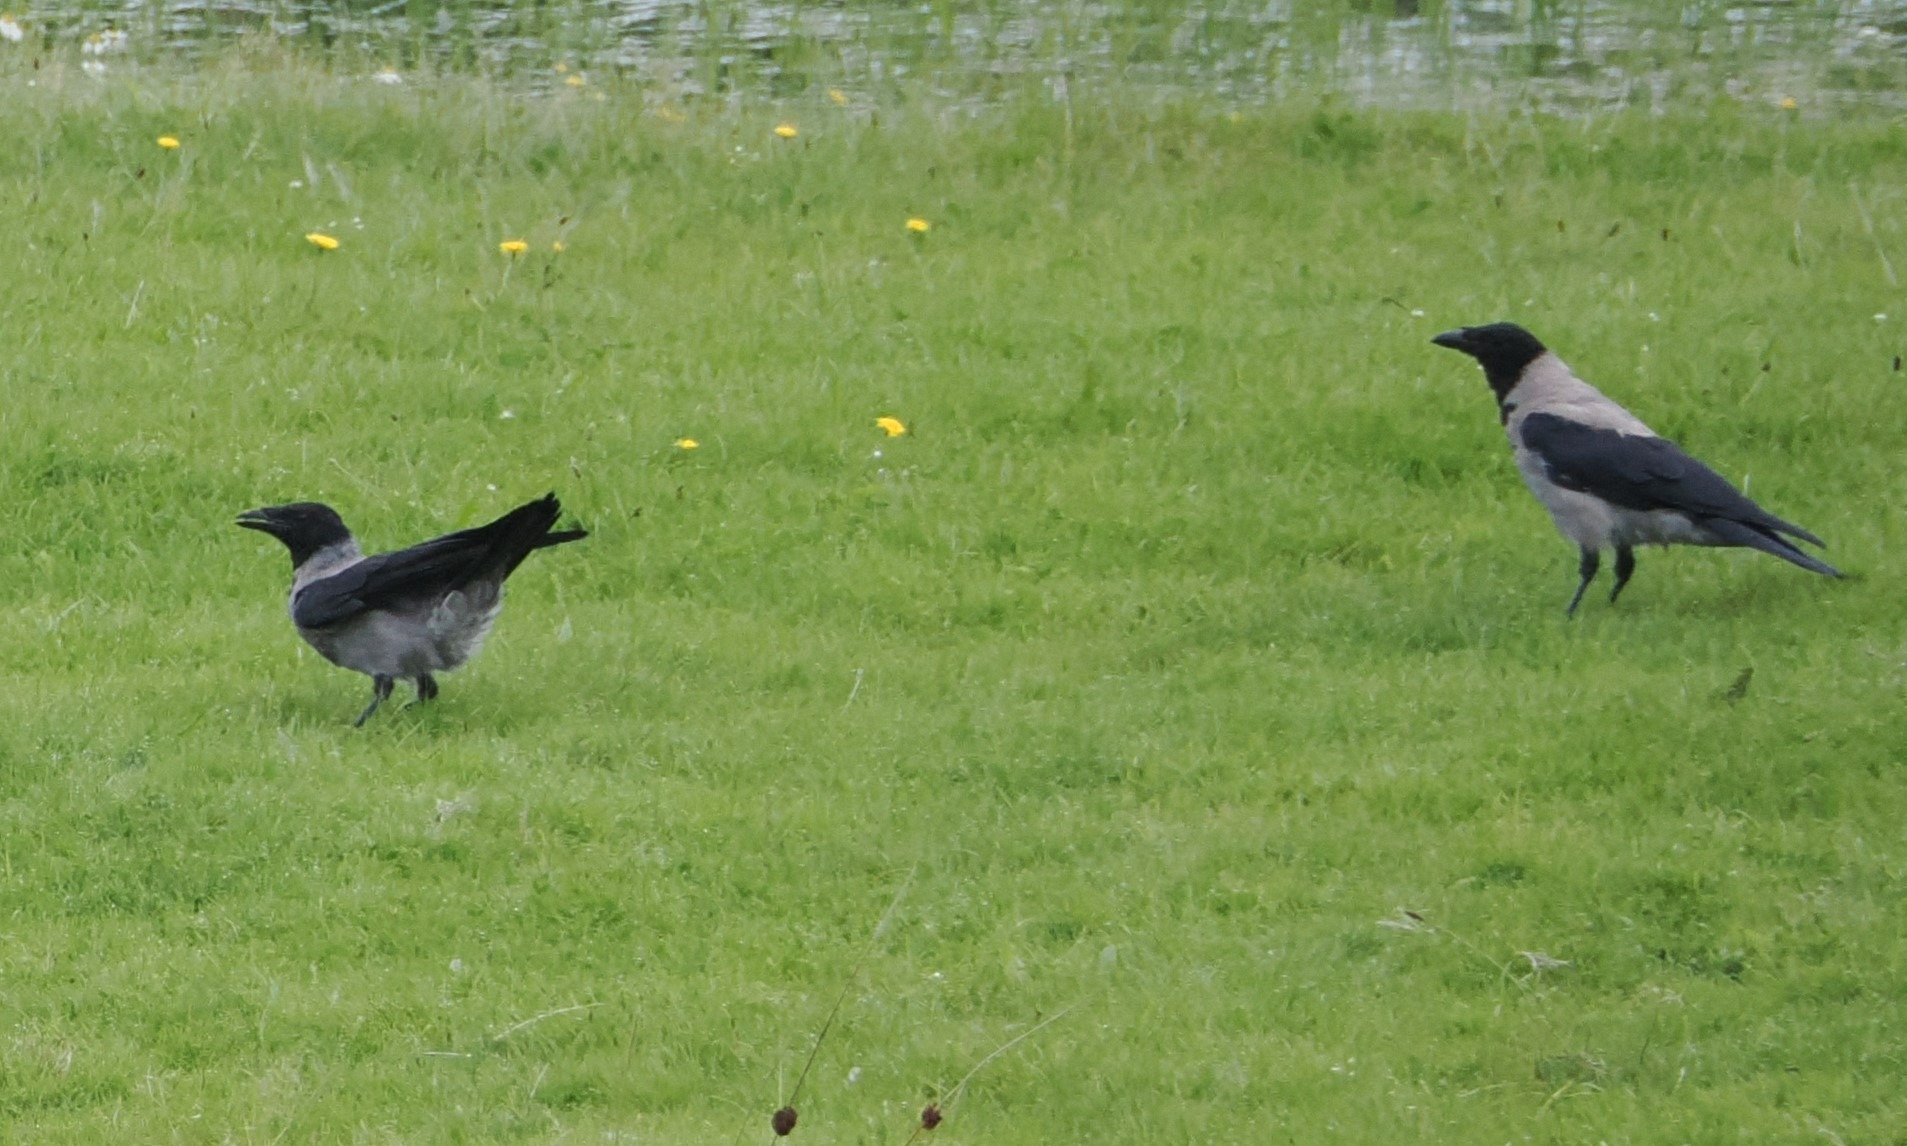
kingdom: Animalia
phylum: Chordata
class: Aves
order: Passeriformes
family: Corvidae
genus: Corvus
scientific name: Corvus cornix
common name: Gråkrage
